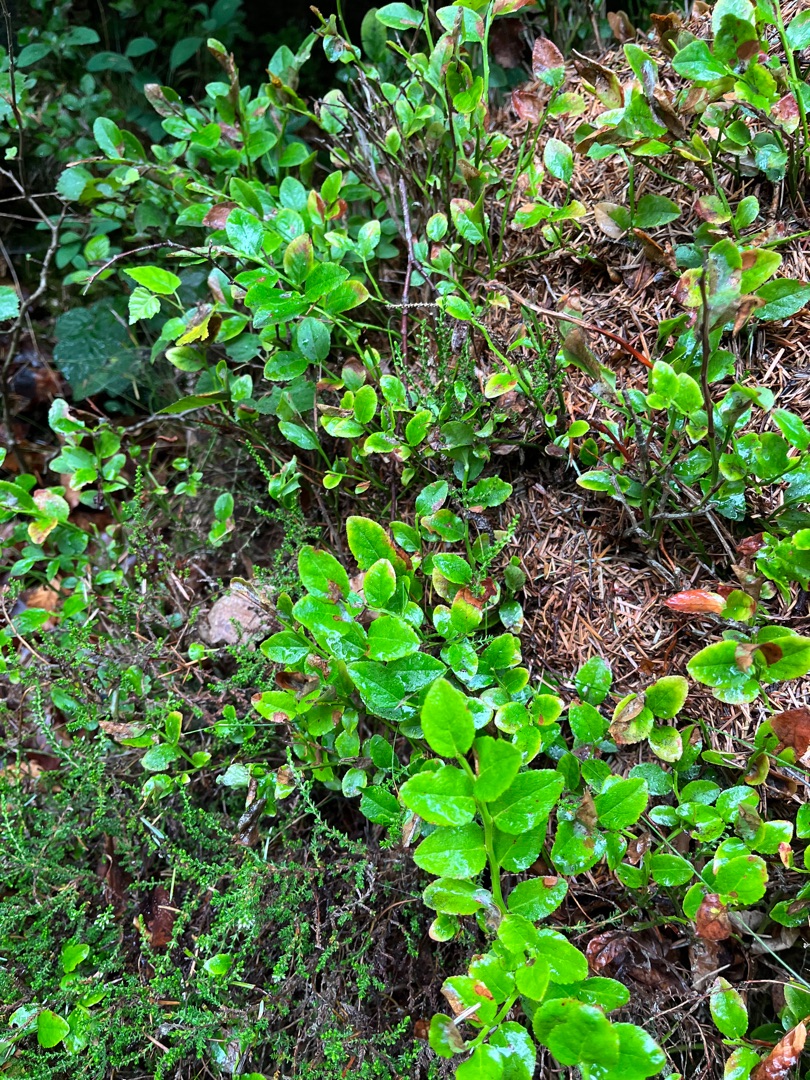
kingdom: Plantae
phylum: Tracheophyta
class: Magnoliopsida
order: Ericales
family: Ericaceae
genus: Vaccinium
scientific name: Vaccinium myrtillus
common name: Blåbær
